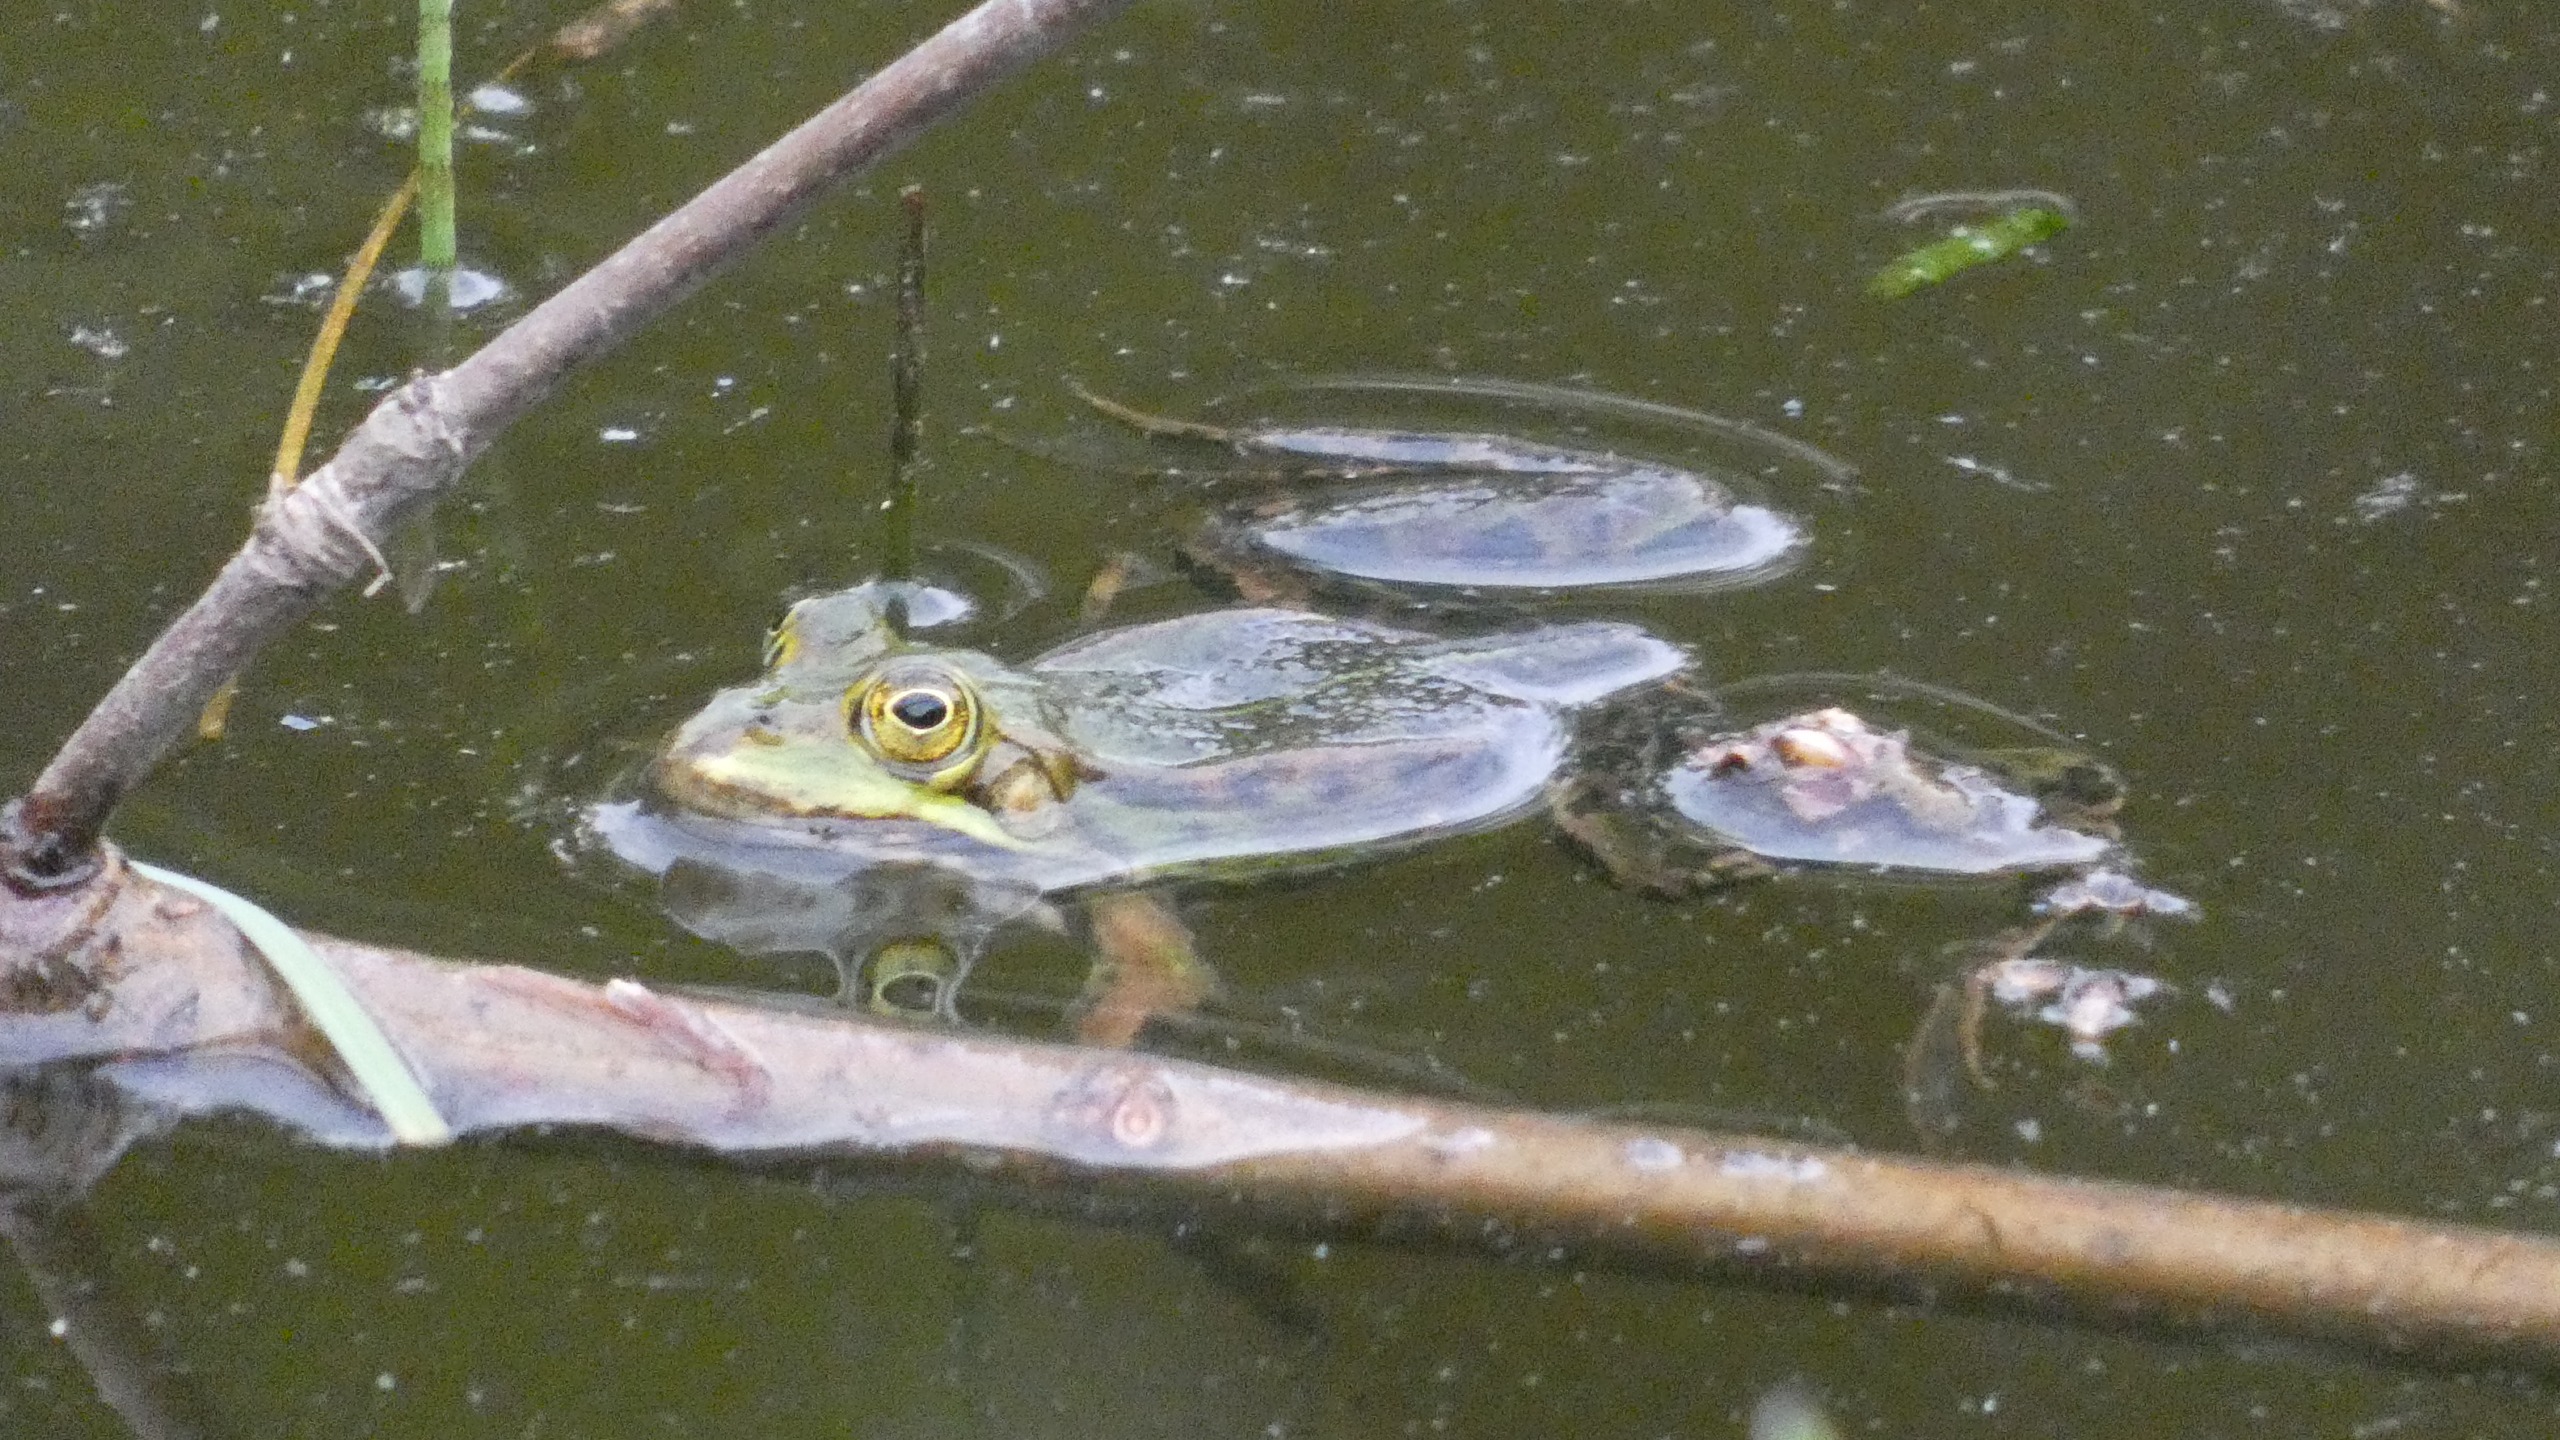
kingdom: Animalia
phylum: Chordata
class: Amphibia
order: Anura
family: Ranidae
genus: Pelophylax
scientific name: Pelophylax lessonae
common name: Grøn frø
